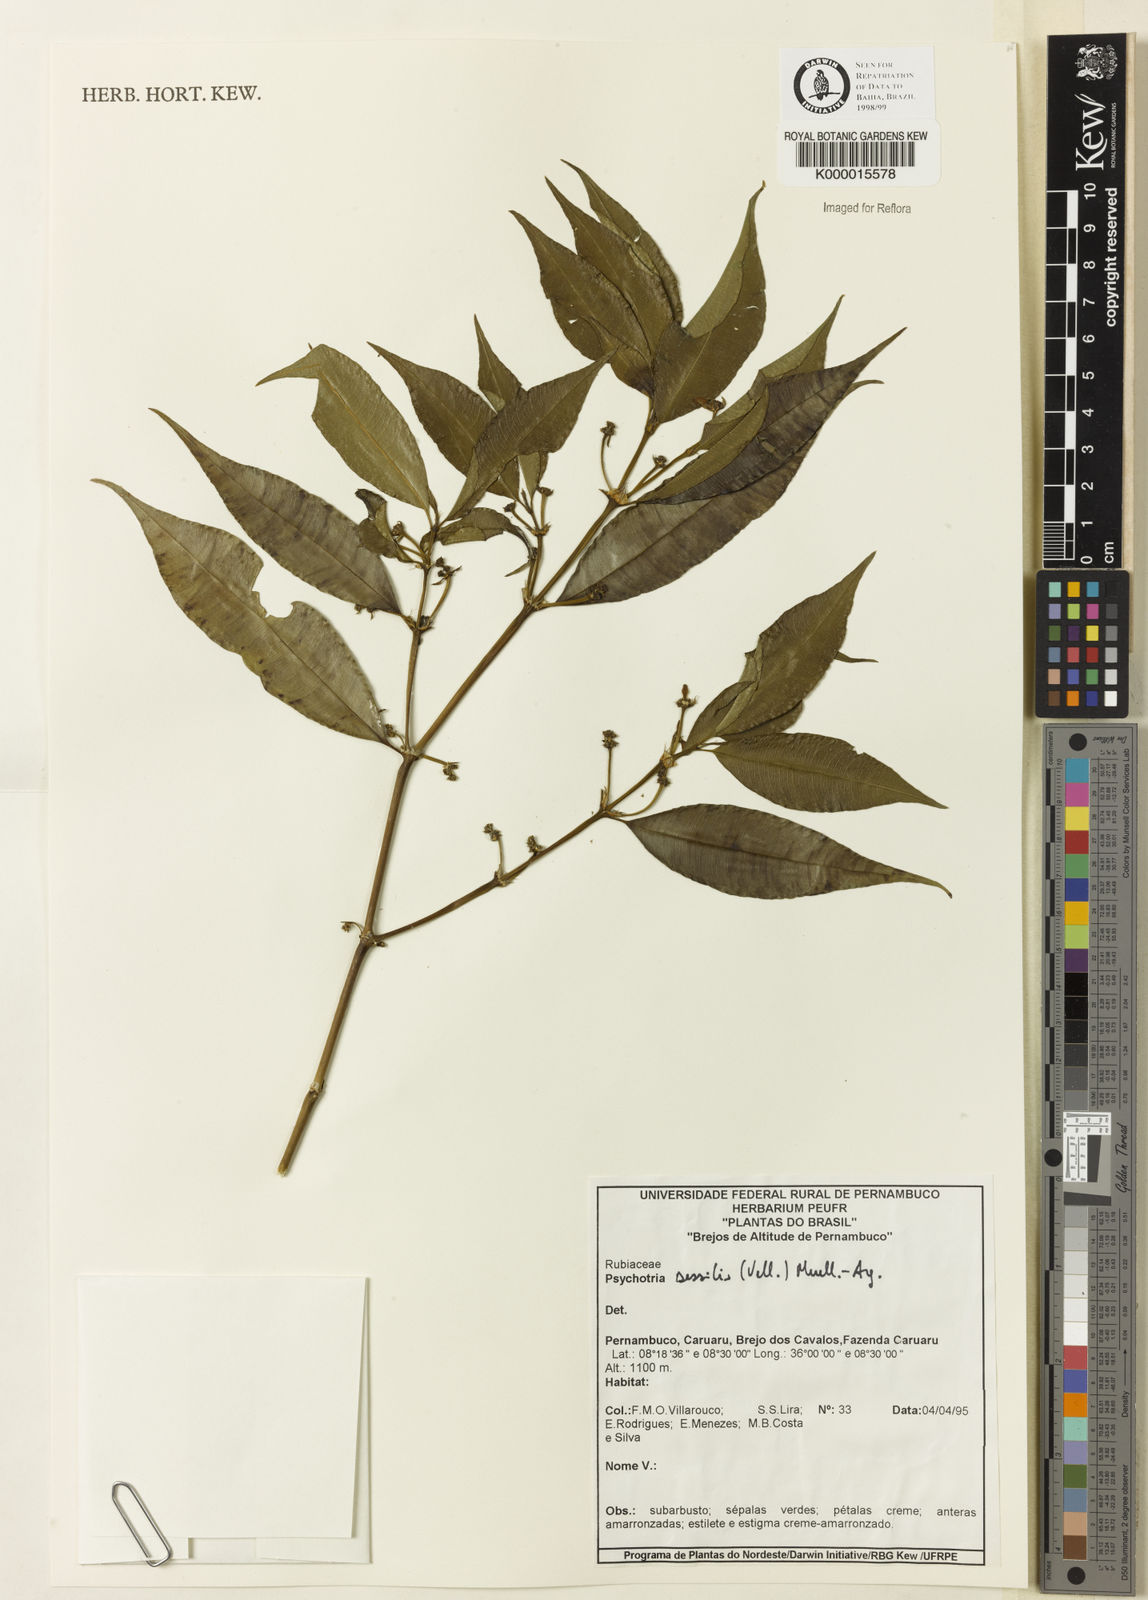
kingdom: Plantae
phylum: Tracheophyta
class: Magnoliopsida
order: Gentianales
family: Rubiaceae
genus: Psychotria
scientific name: Psychotria
